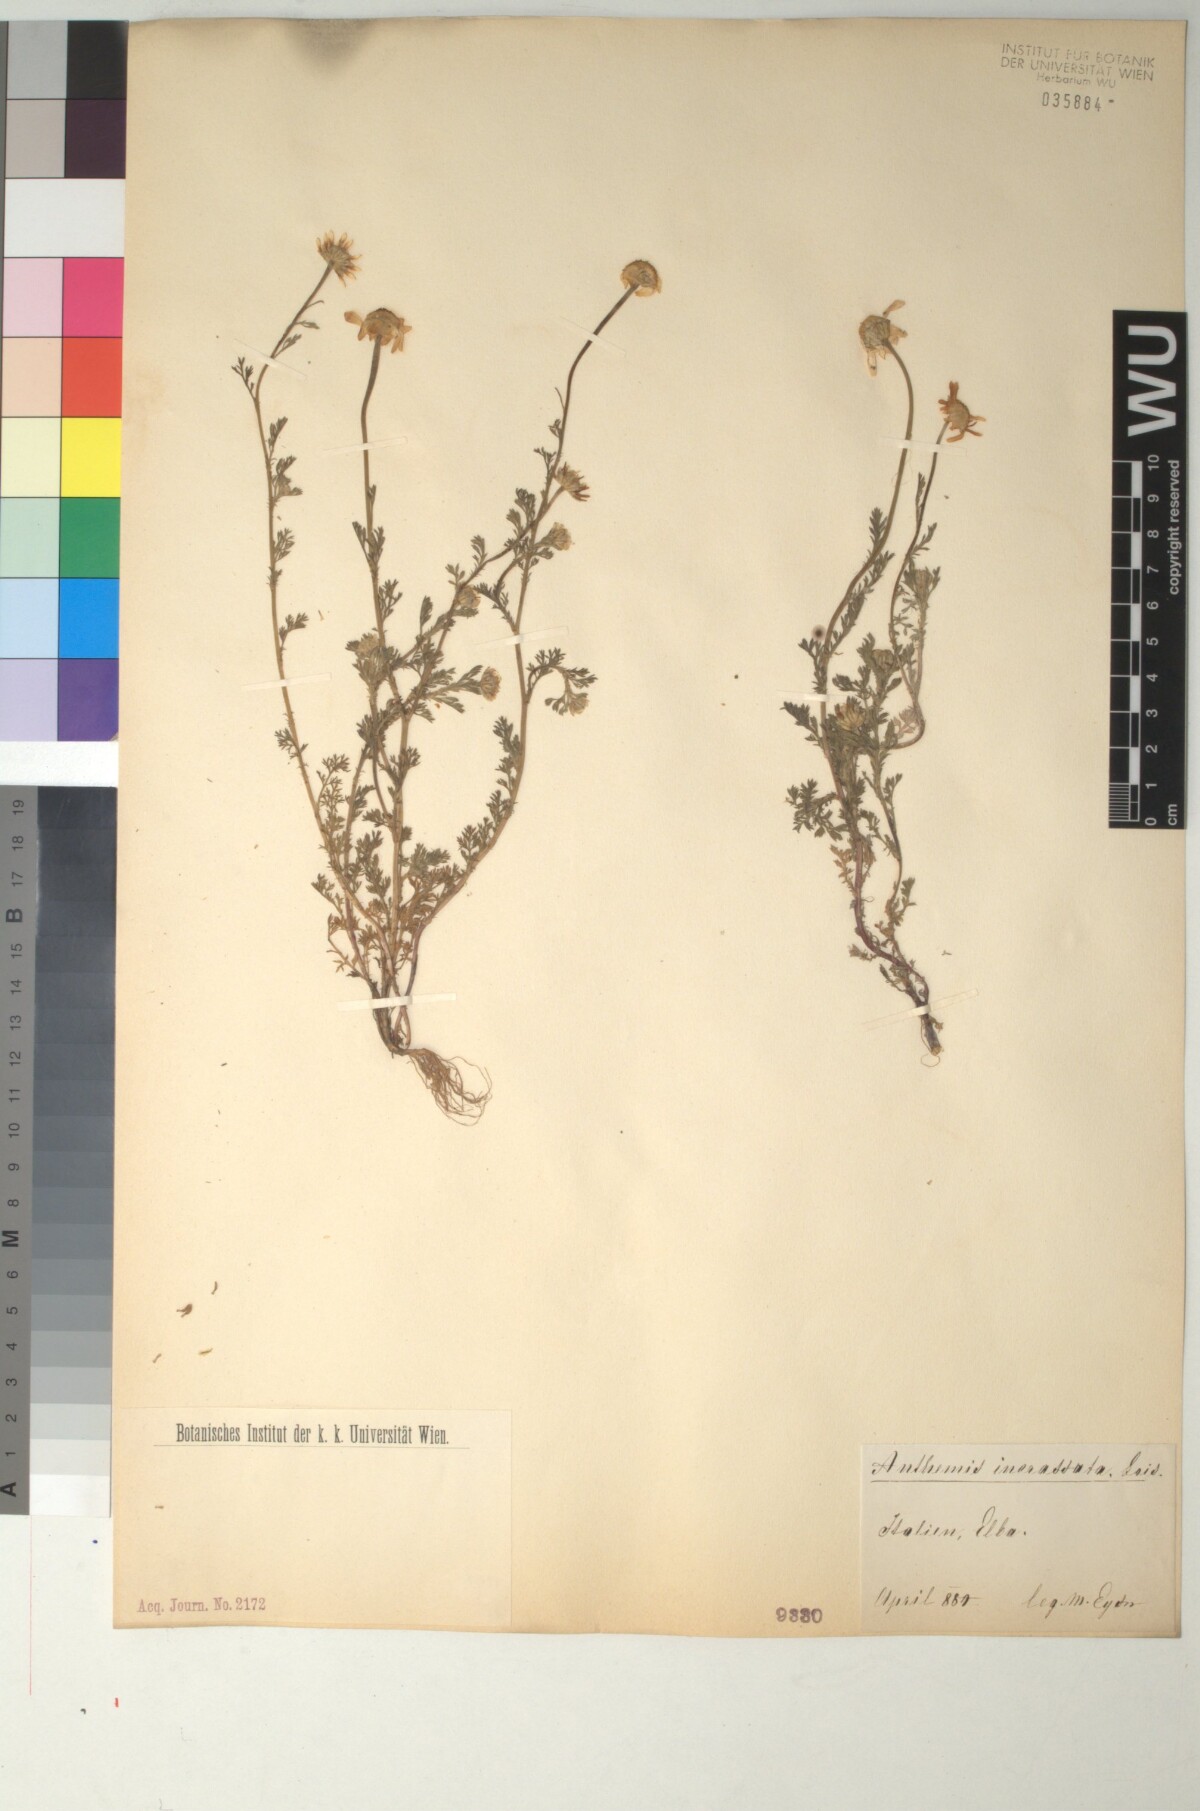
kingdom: Plantae
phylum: Tracheophyta
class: Magnoliopsida
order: Asterales
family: Asteraceae
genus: Anthemis
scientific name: Anthemis arvensis
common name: Corn chamomile
